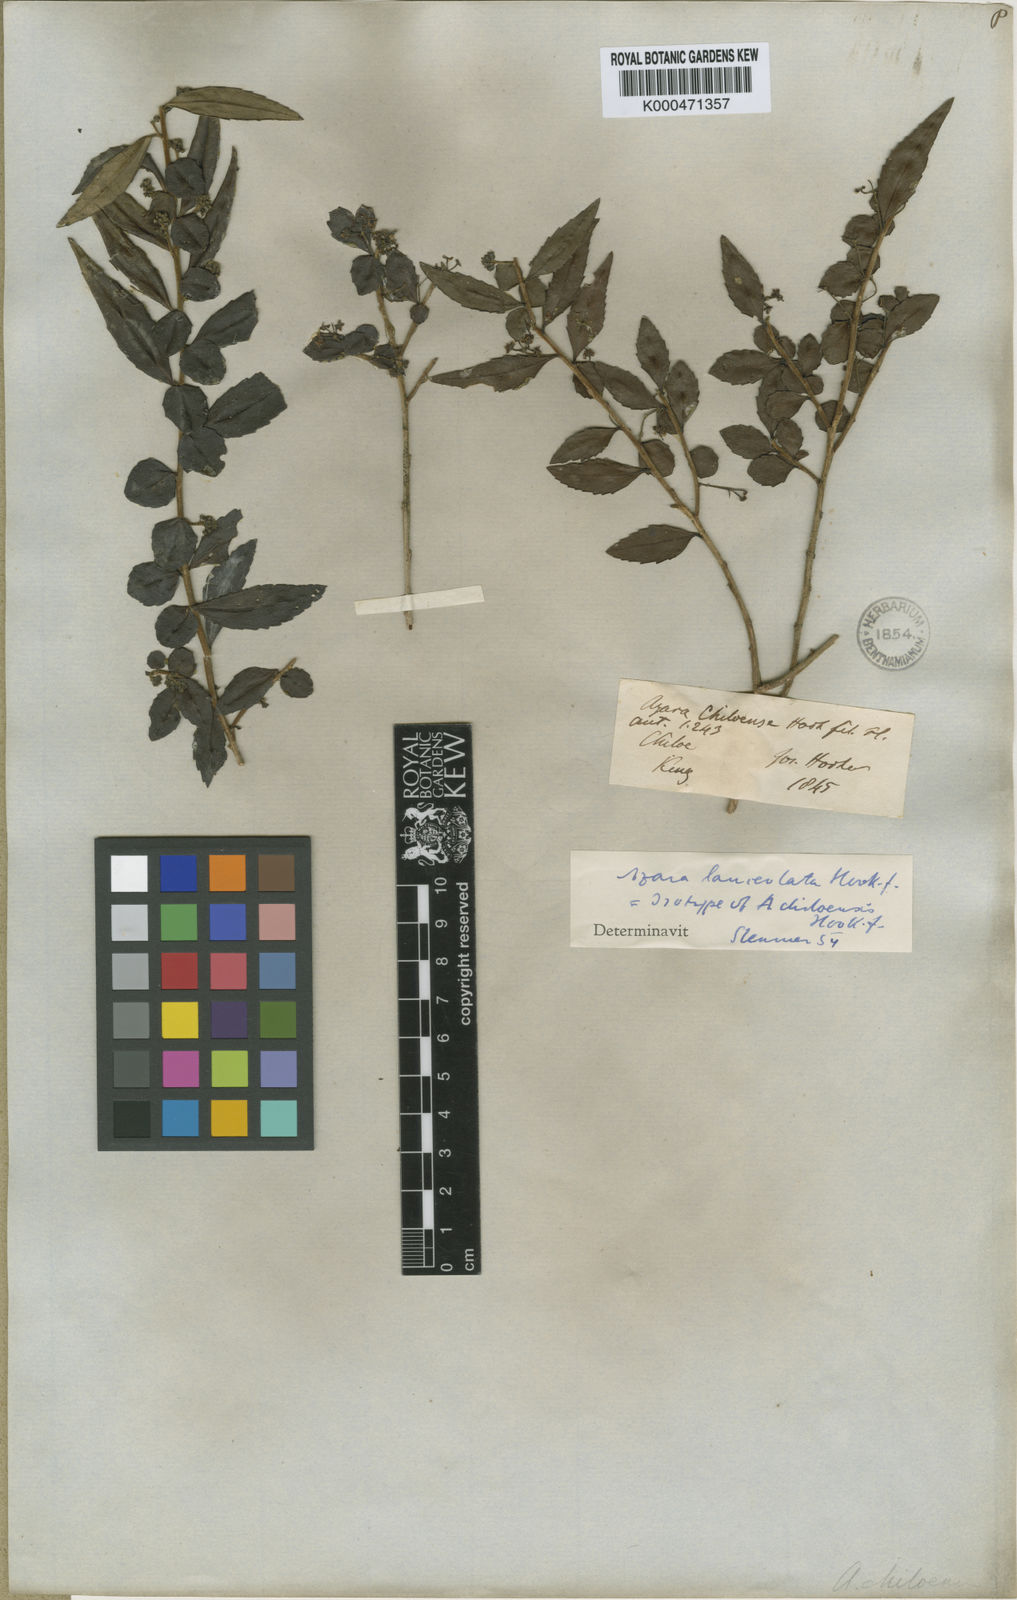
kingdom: Plantae
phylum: Tracheophyta
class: Magnoliopsida
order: Malpighiales
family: Salicaceae
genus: Azara
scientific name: Azara lanceolata
